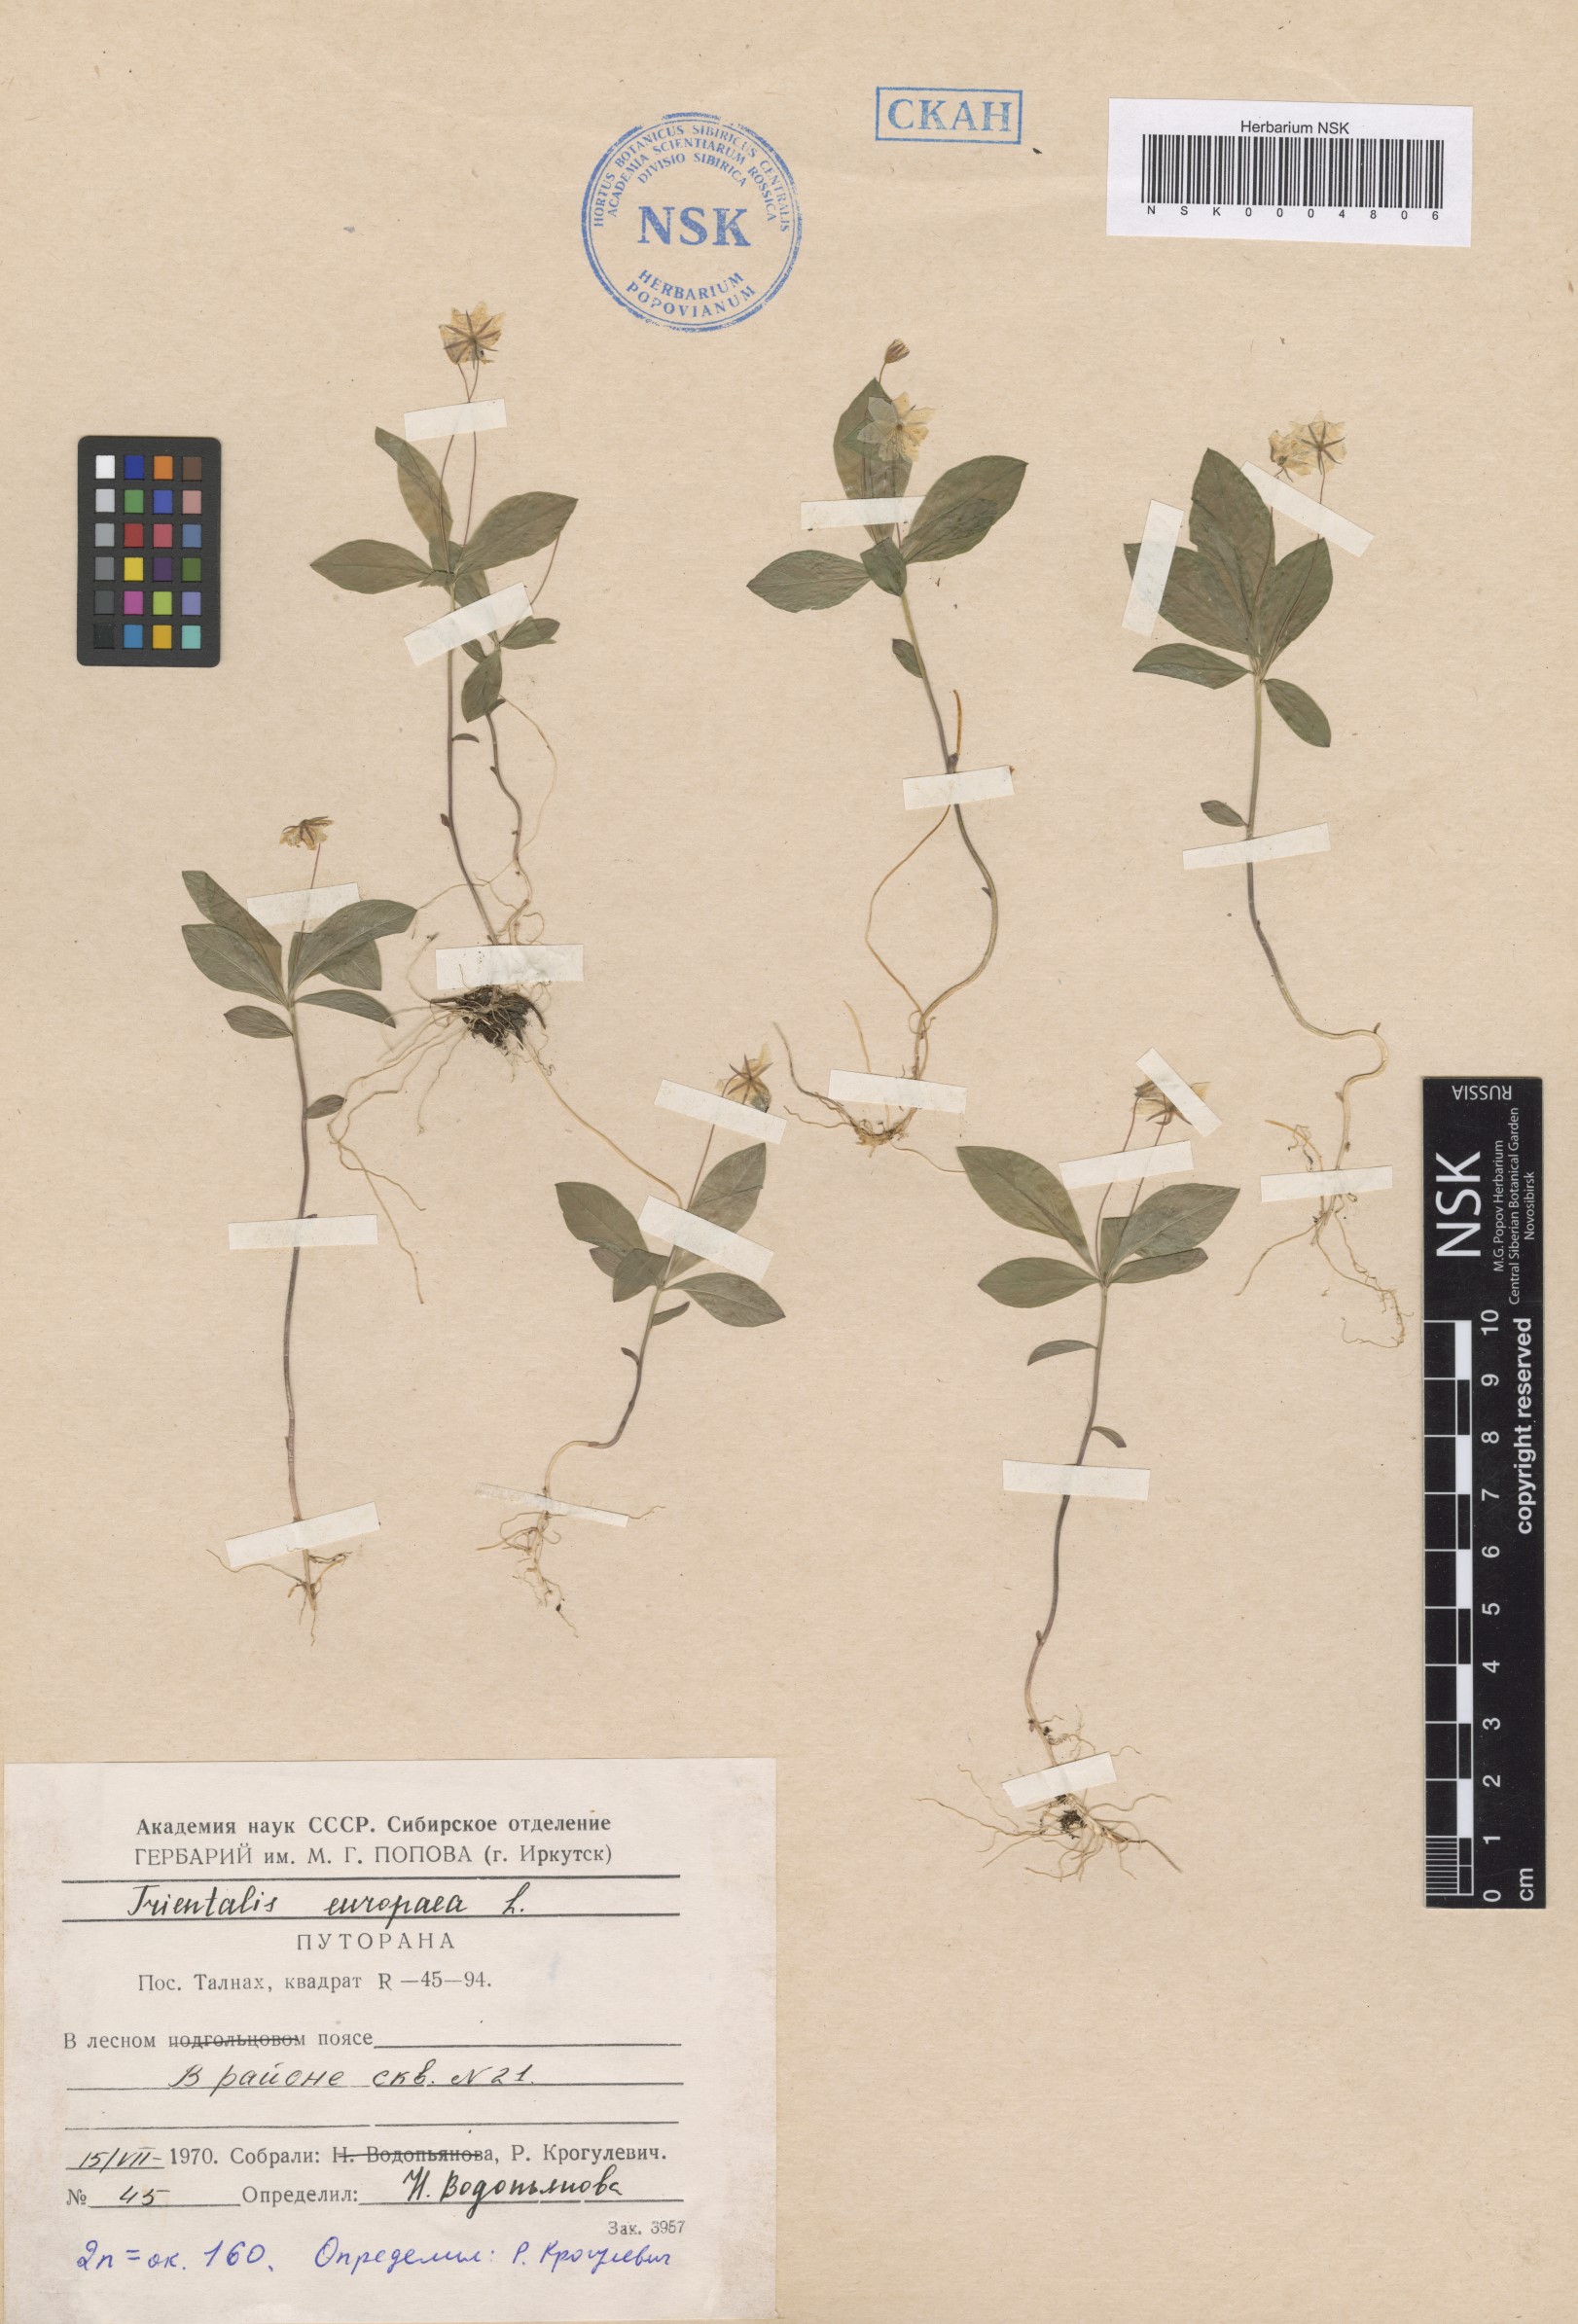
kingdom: Plantae
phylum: Tracheophyta
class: Magnoliopsida
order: Ericales
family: Primulaceae
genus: Lysimachia
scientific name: Lysimachia europaea
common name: Arctic starflower
